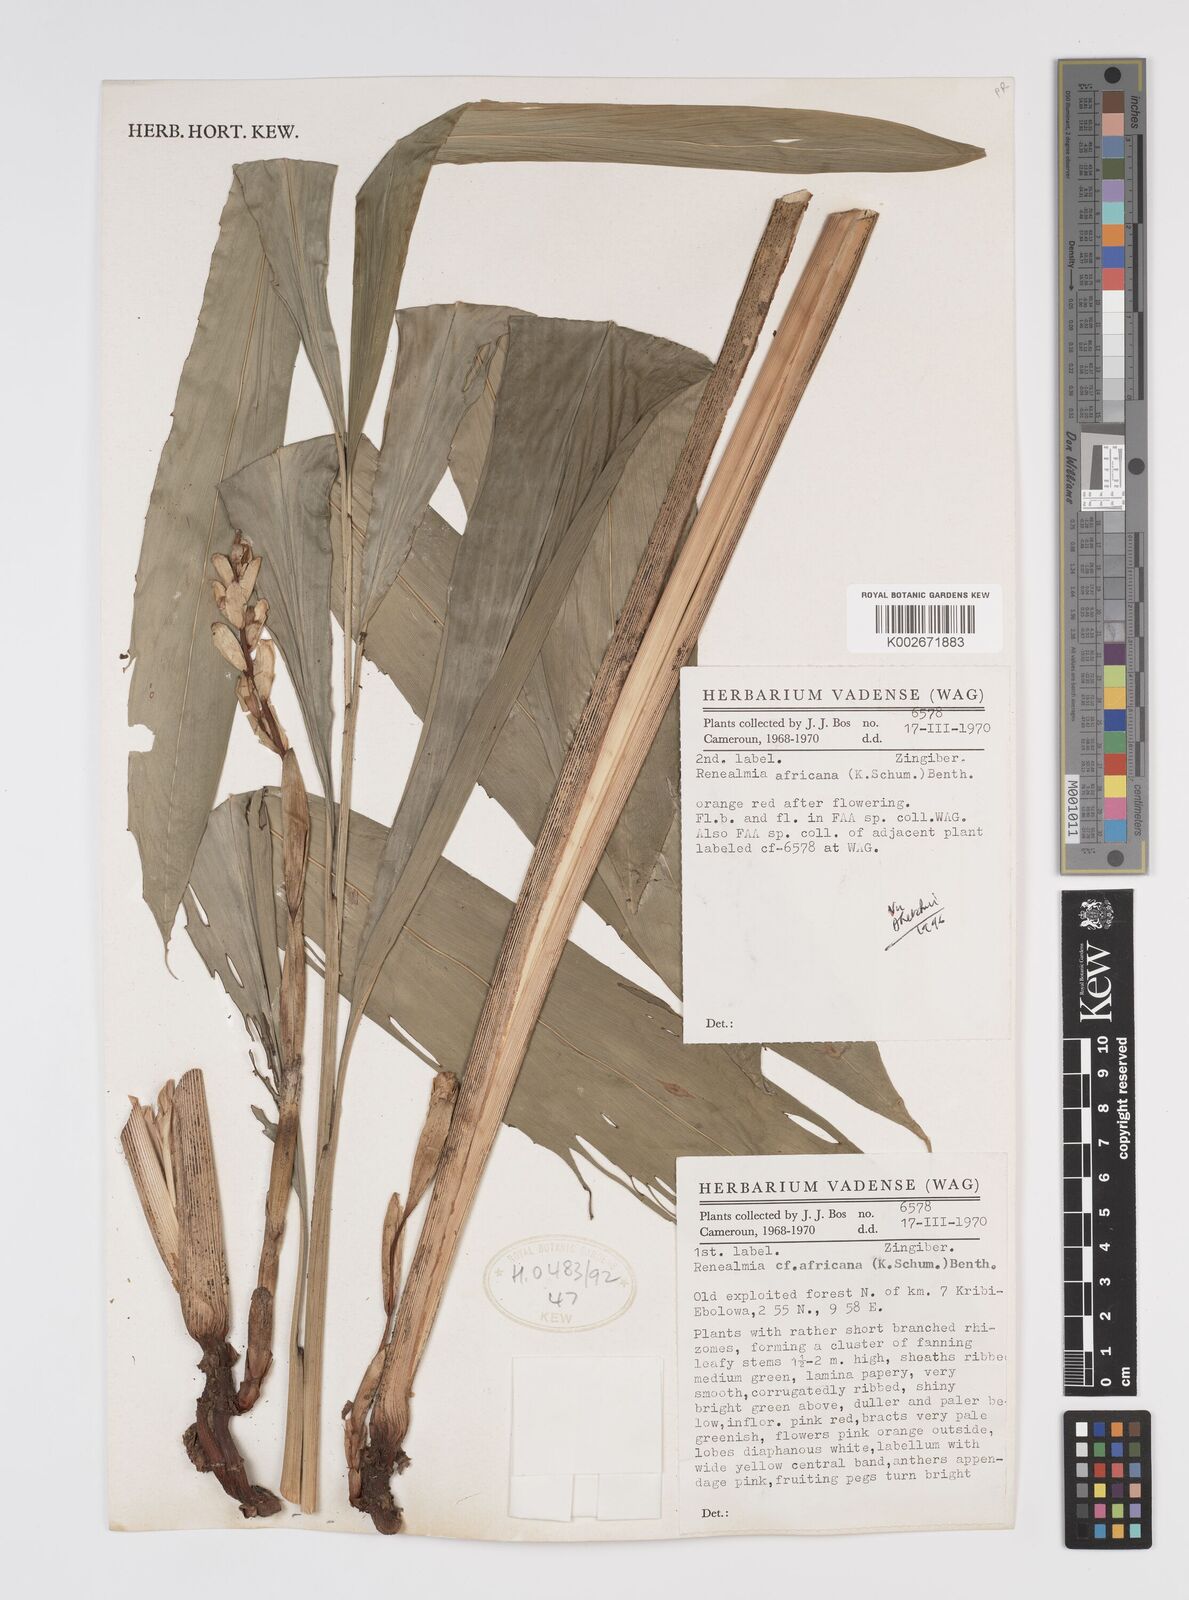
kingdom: Plantae
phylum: Tracheophyta
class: Liliopsida
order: Zingiberales
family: Zingiberaceae
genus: Renealmia
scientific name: Renealmia africana
